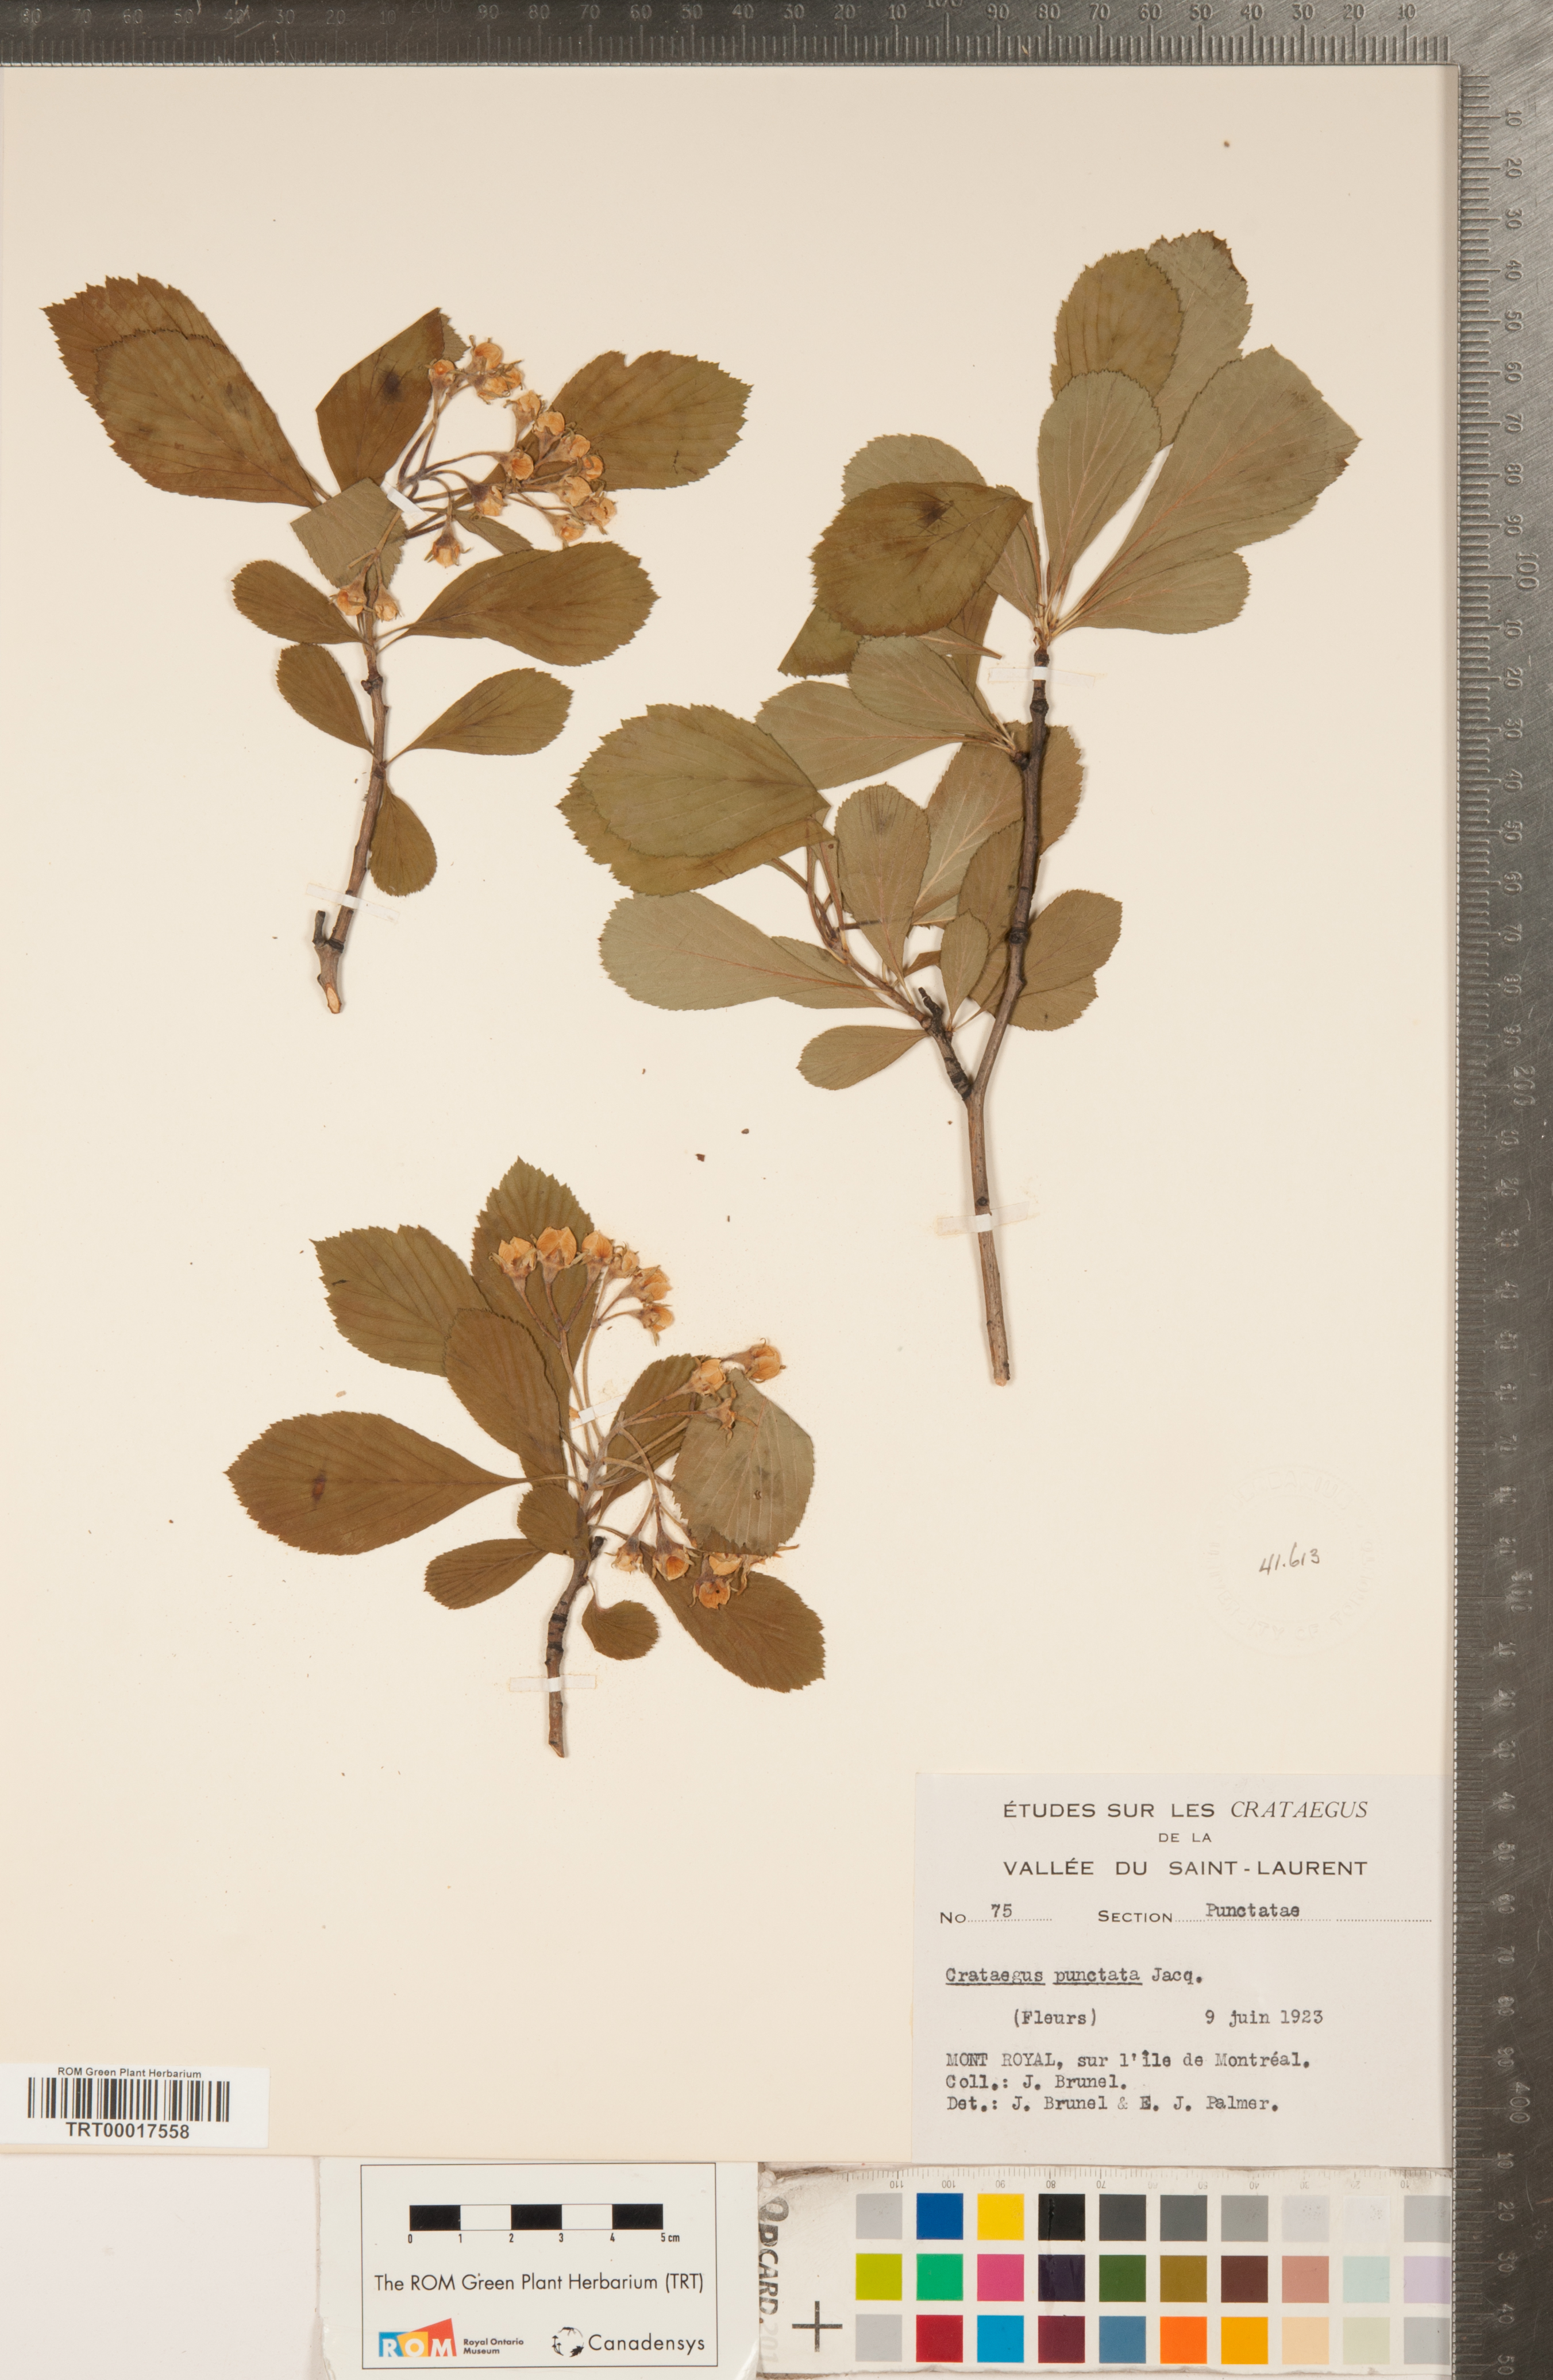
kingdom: Plantae
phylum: Tracheophyta
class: Magnoliopsida
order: Rosales
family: Rosaceae
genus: Crataegus
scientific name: Crataegus punctata
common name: Dotted hawthorn
